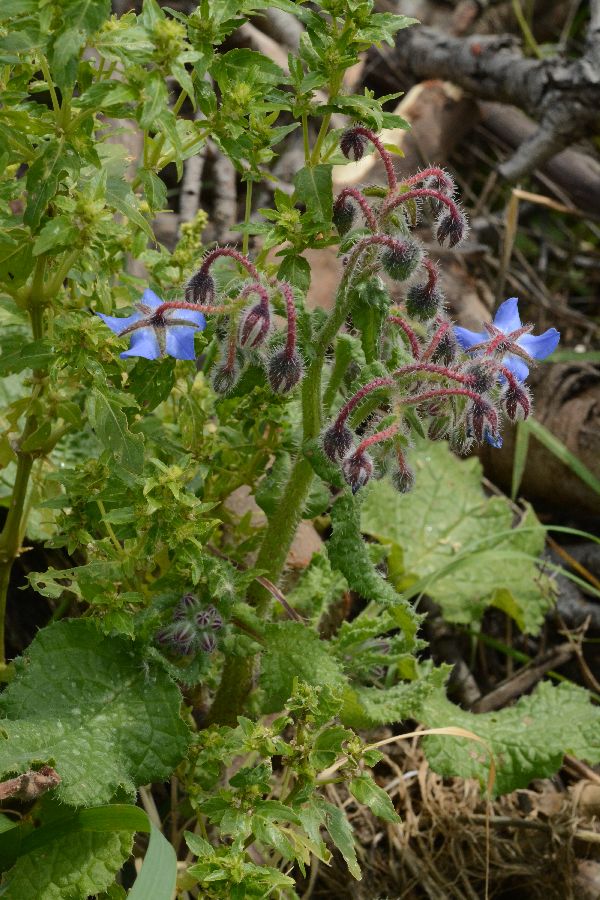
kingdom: Plantae
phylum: Tracheophyta
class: Magnoliopsida
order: Boraginales
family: Boraginaceae
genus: Borago
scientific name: Borago officinalis
